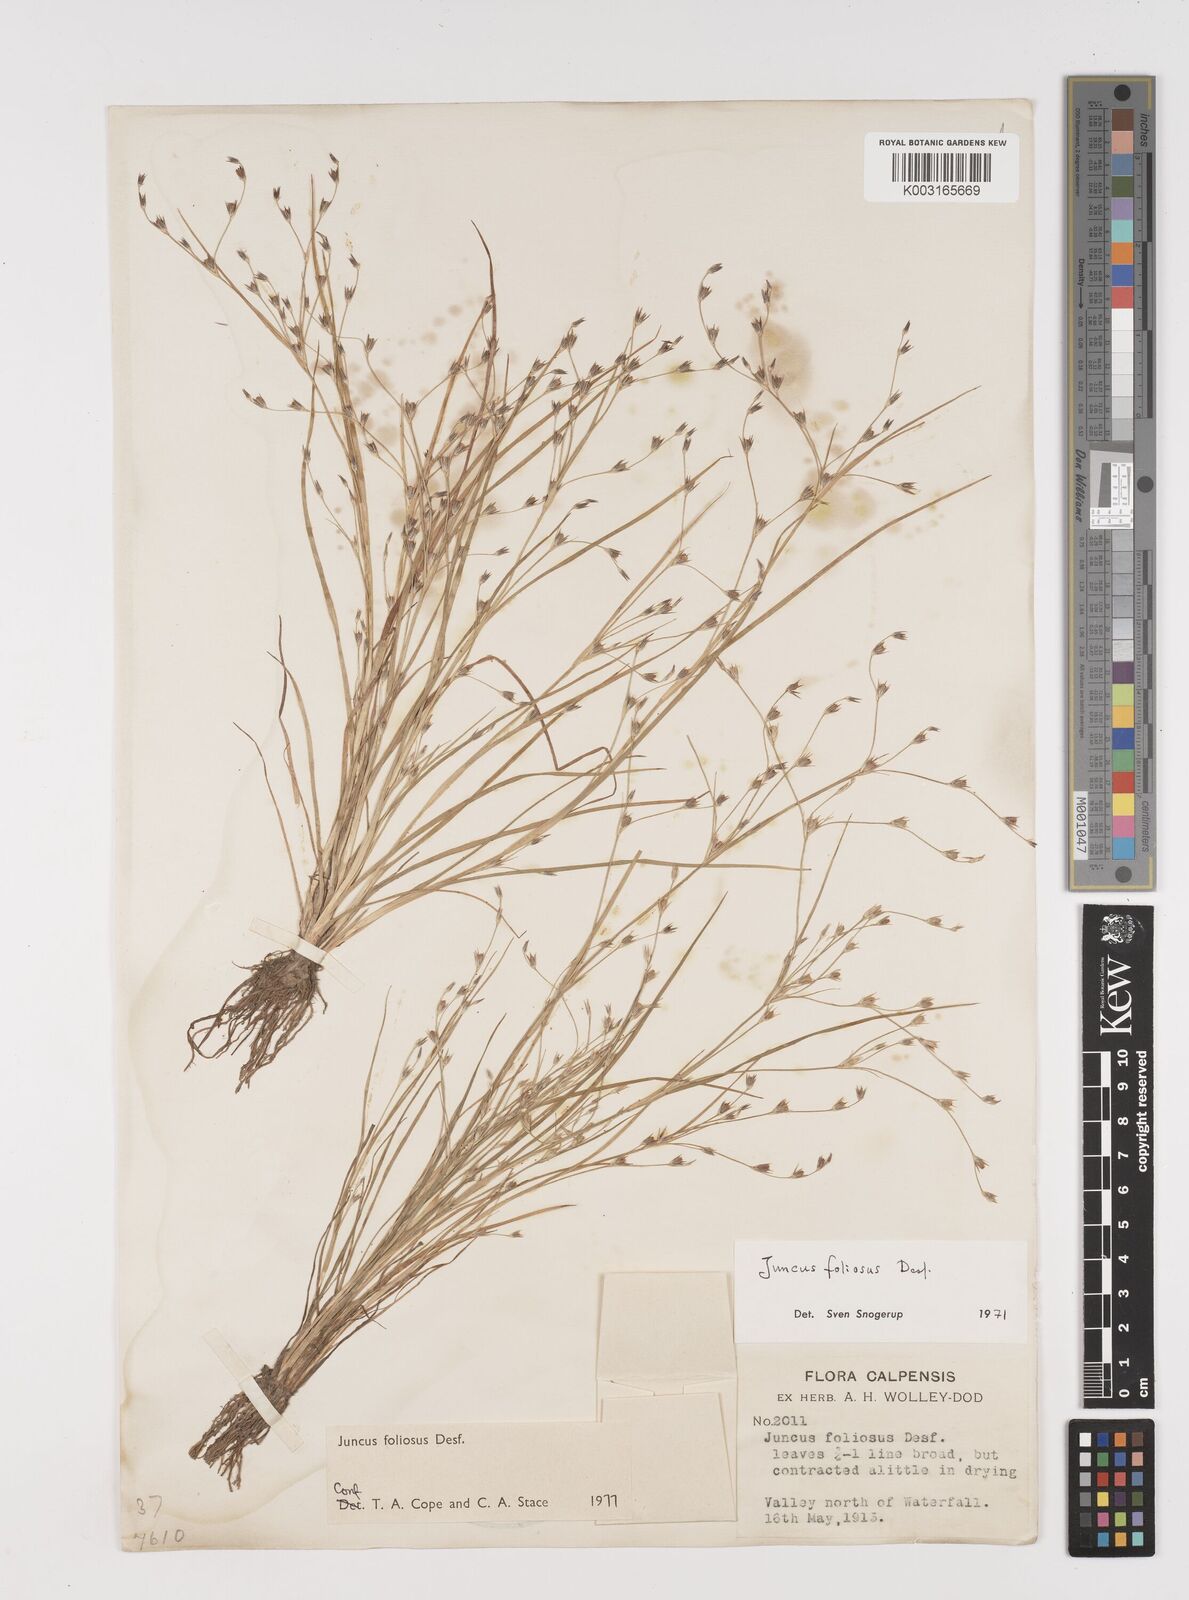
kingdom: Plantae
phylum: Tracheophyta
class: Liliopsida
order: Poales
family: Juncaceae
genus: Juncus
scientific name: Juncus foliosus
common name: Leafy rush
